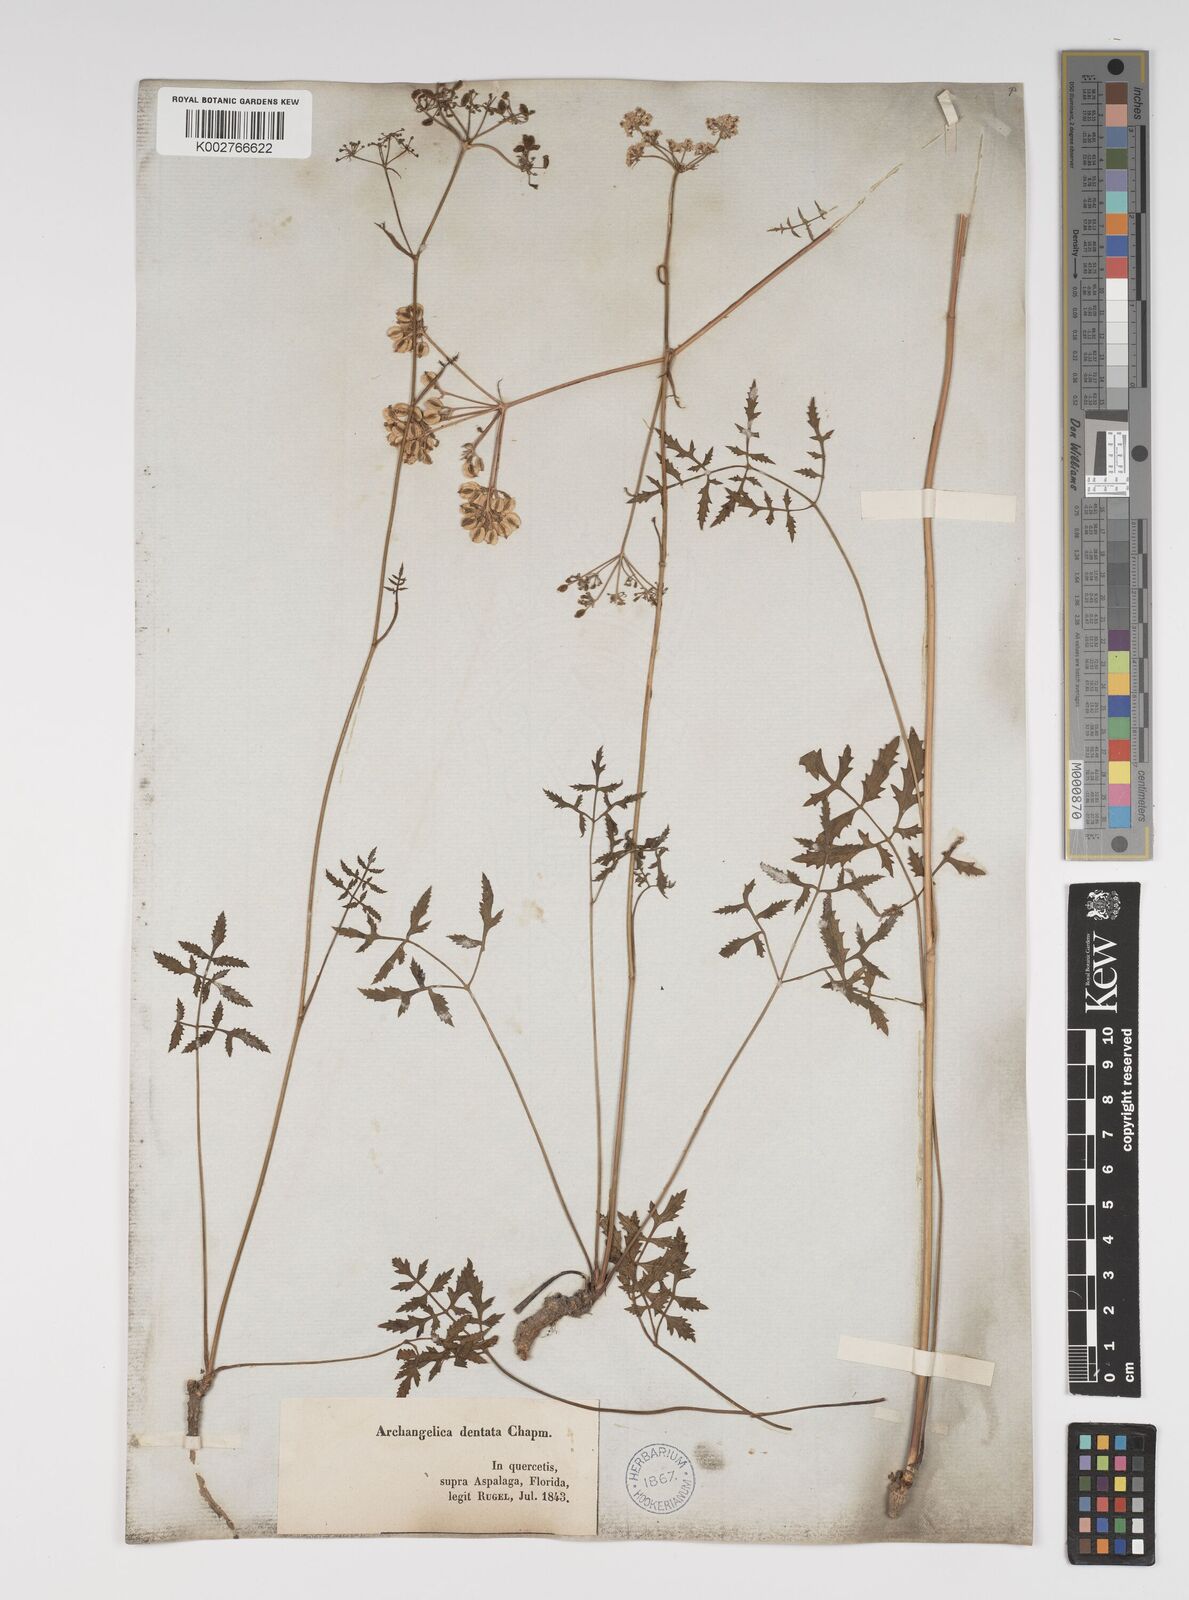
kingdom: Plantae
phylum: Tracheophyta
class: Magnoliopsida
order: Apiales
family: Apiaceae
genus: Angelica
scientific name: Angelica venenosa
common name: Hairy angelica
